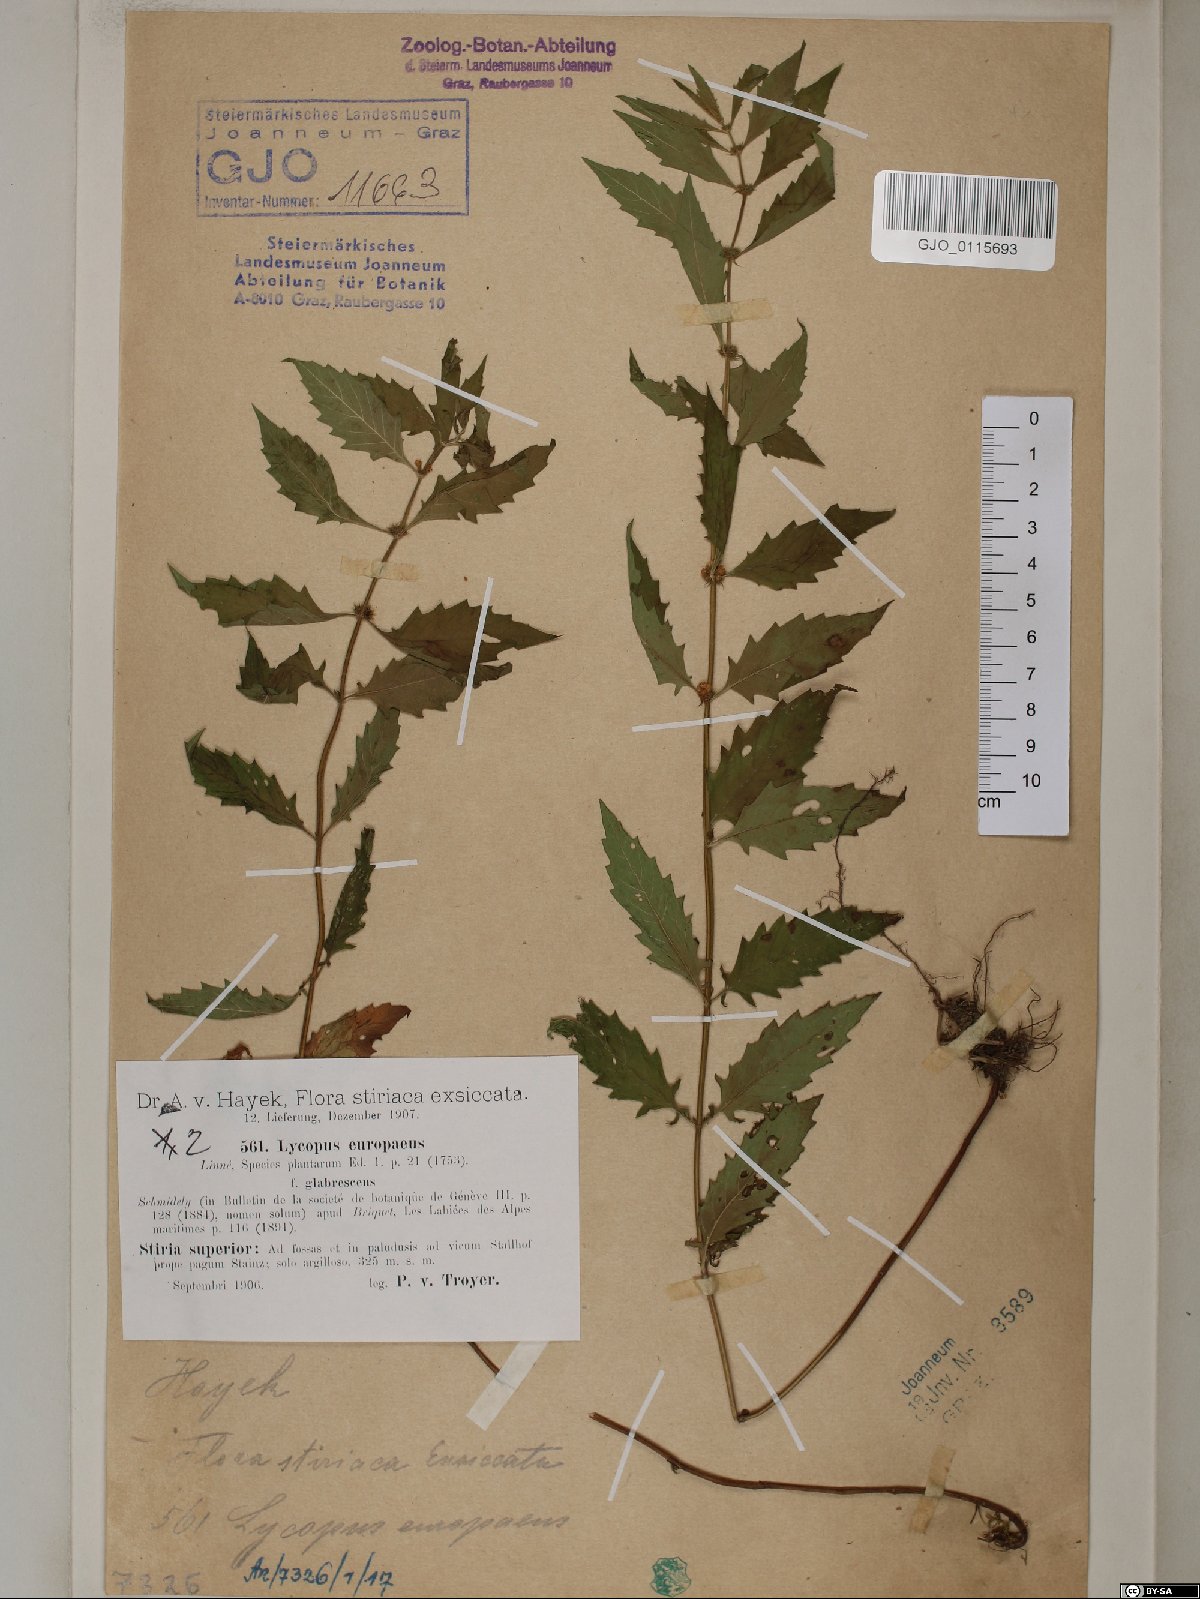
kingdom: Plantae
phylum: Tracheophyta
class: Magnoliopsida
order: Lamiales
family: Lamiaceae
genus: Lycopus
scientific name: Lycopus europaeus
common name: European bugleweed
